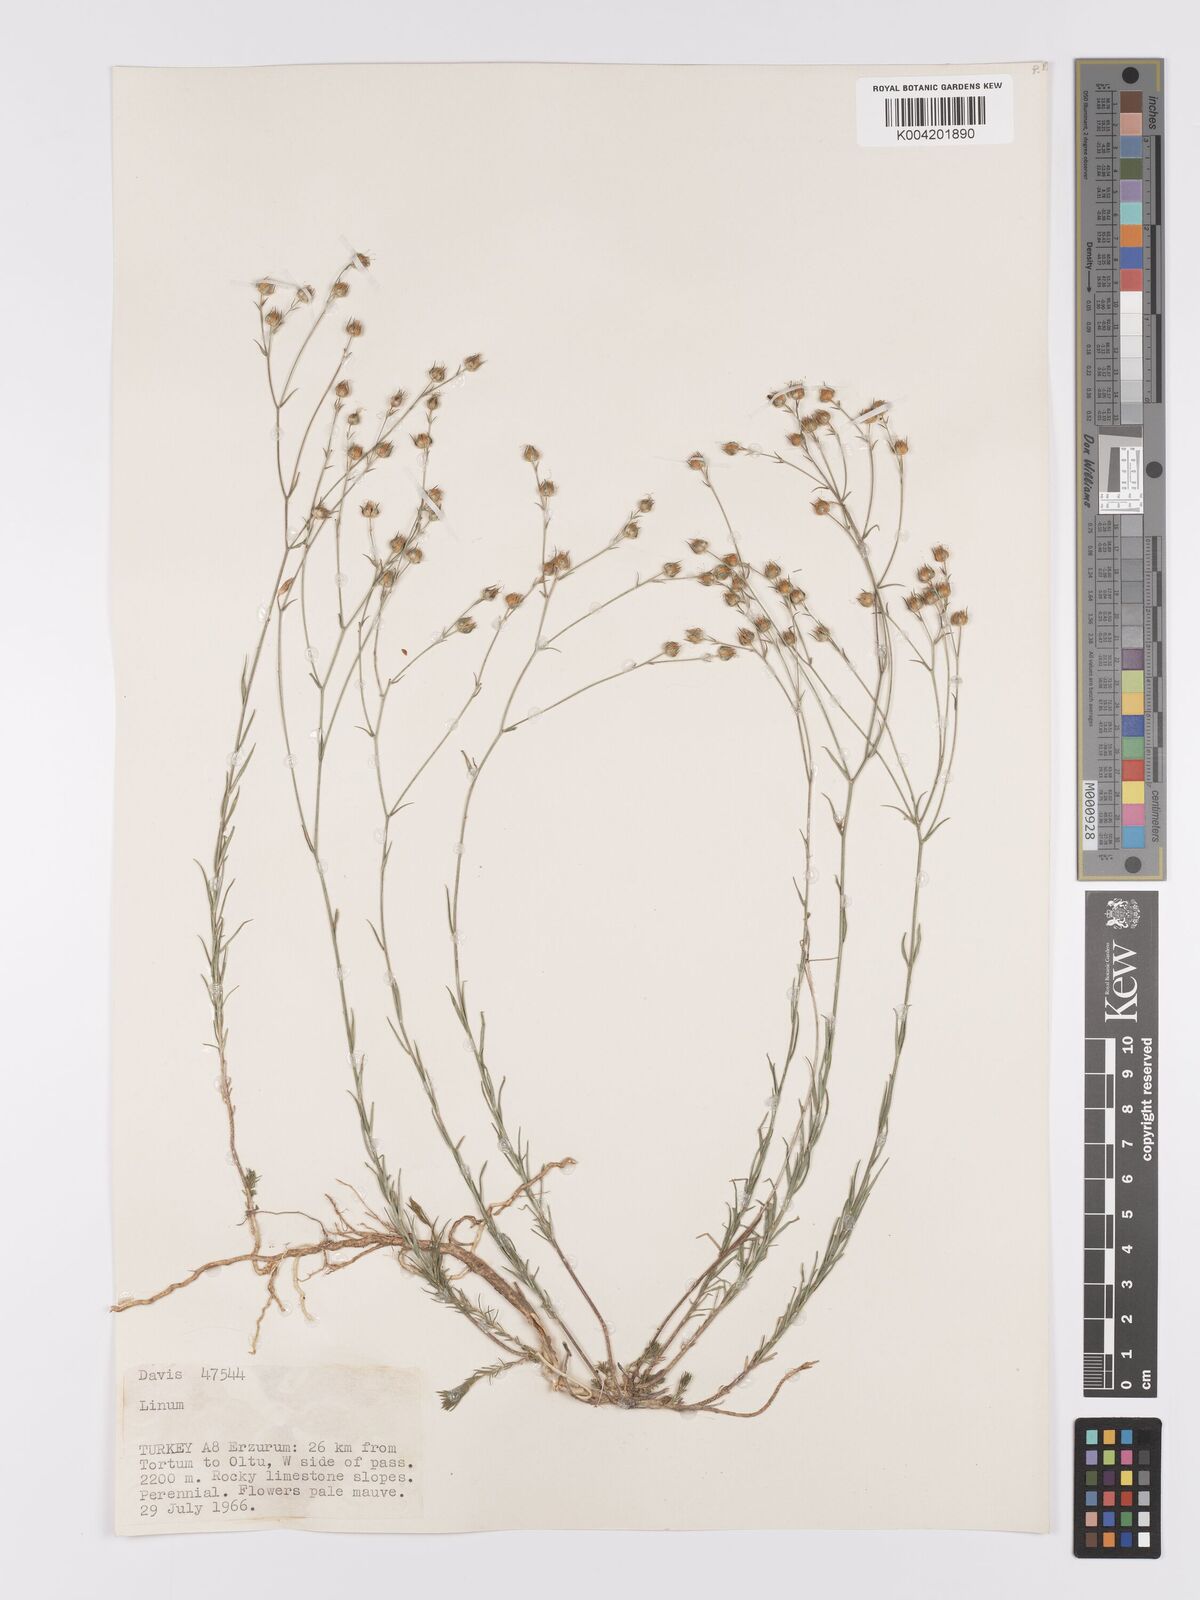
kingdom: Plantae
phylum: Tracheophyta
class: Magnoliopsida
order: Malpighiales
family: Linaceae
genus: Linum
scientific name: Linum
